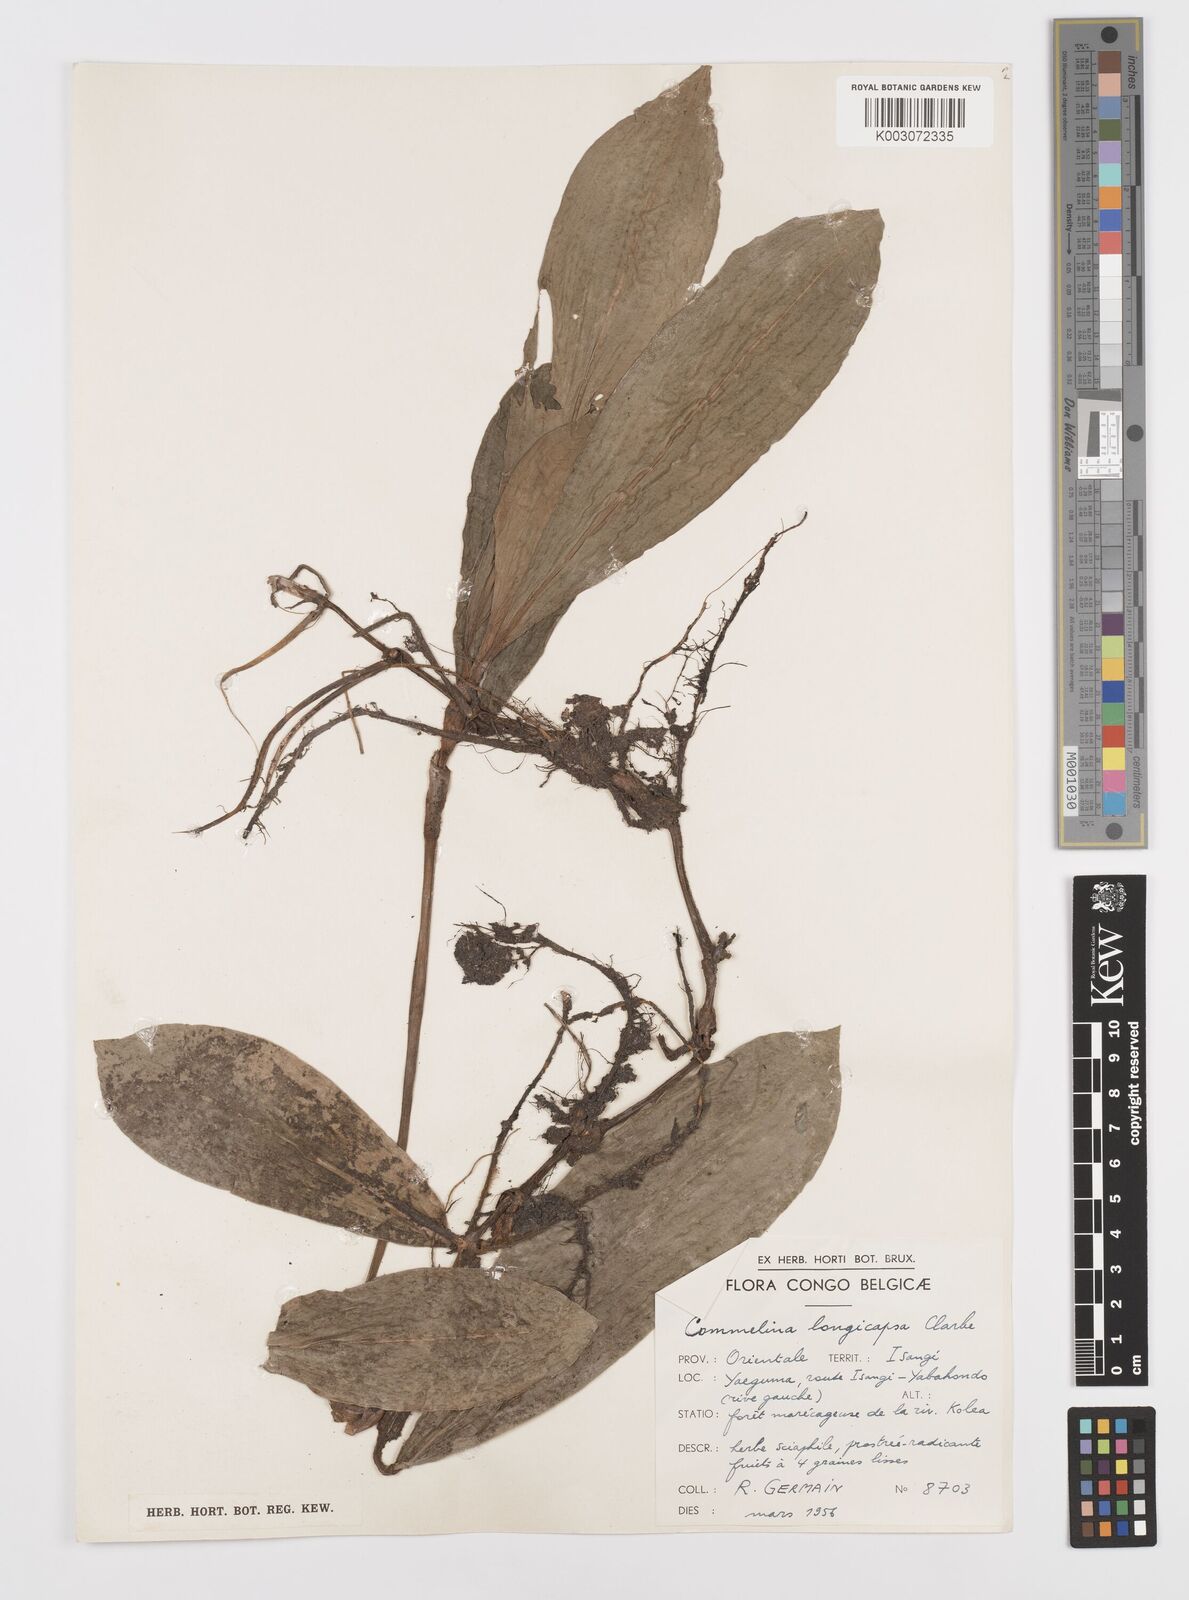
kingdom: Plantae
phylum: Tracheophyta
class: Liliopsida
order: Commelinales
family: Commelinaceae
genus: Commelina
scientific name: Commelina longicapsa
